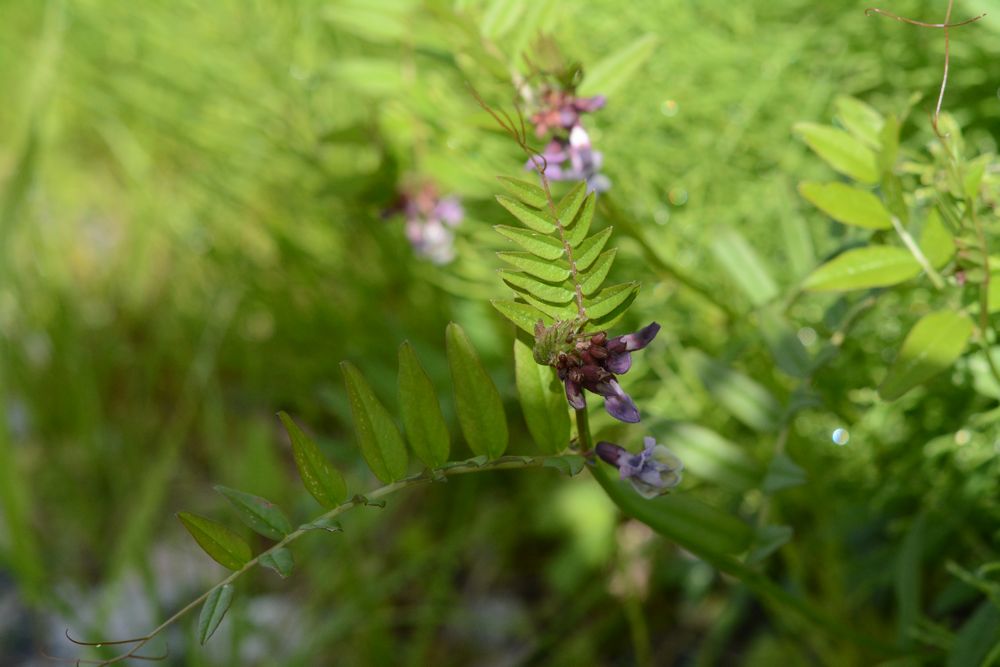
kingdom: Plantae
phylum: Tracheophyta
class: Magnoliopsida
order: Fabales
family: Fabaceae
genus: Vicia
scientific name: Vicia sepium
